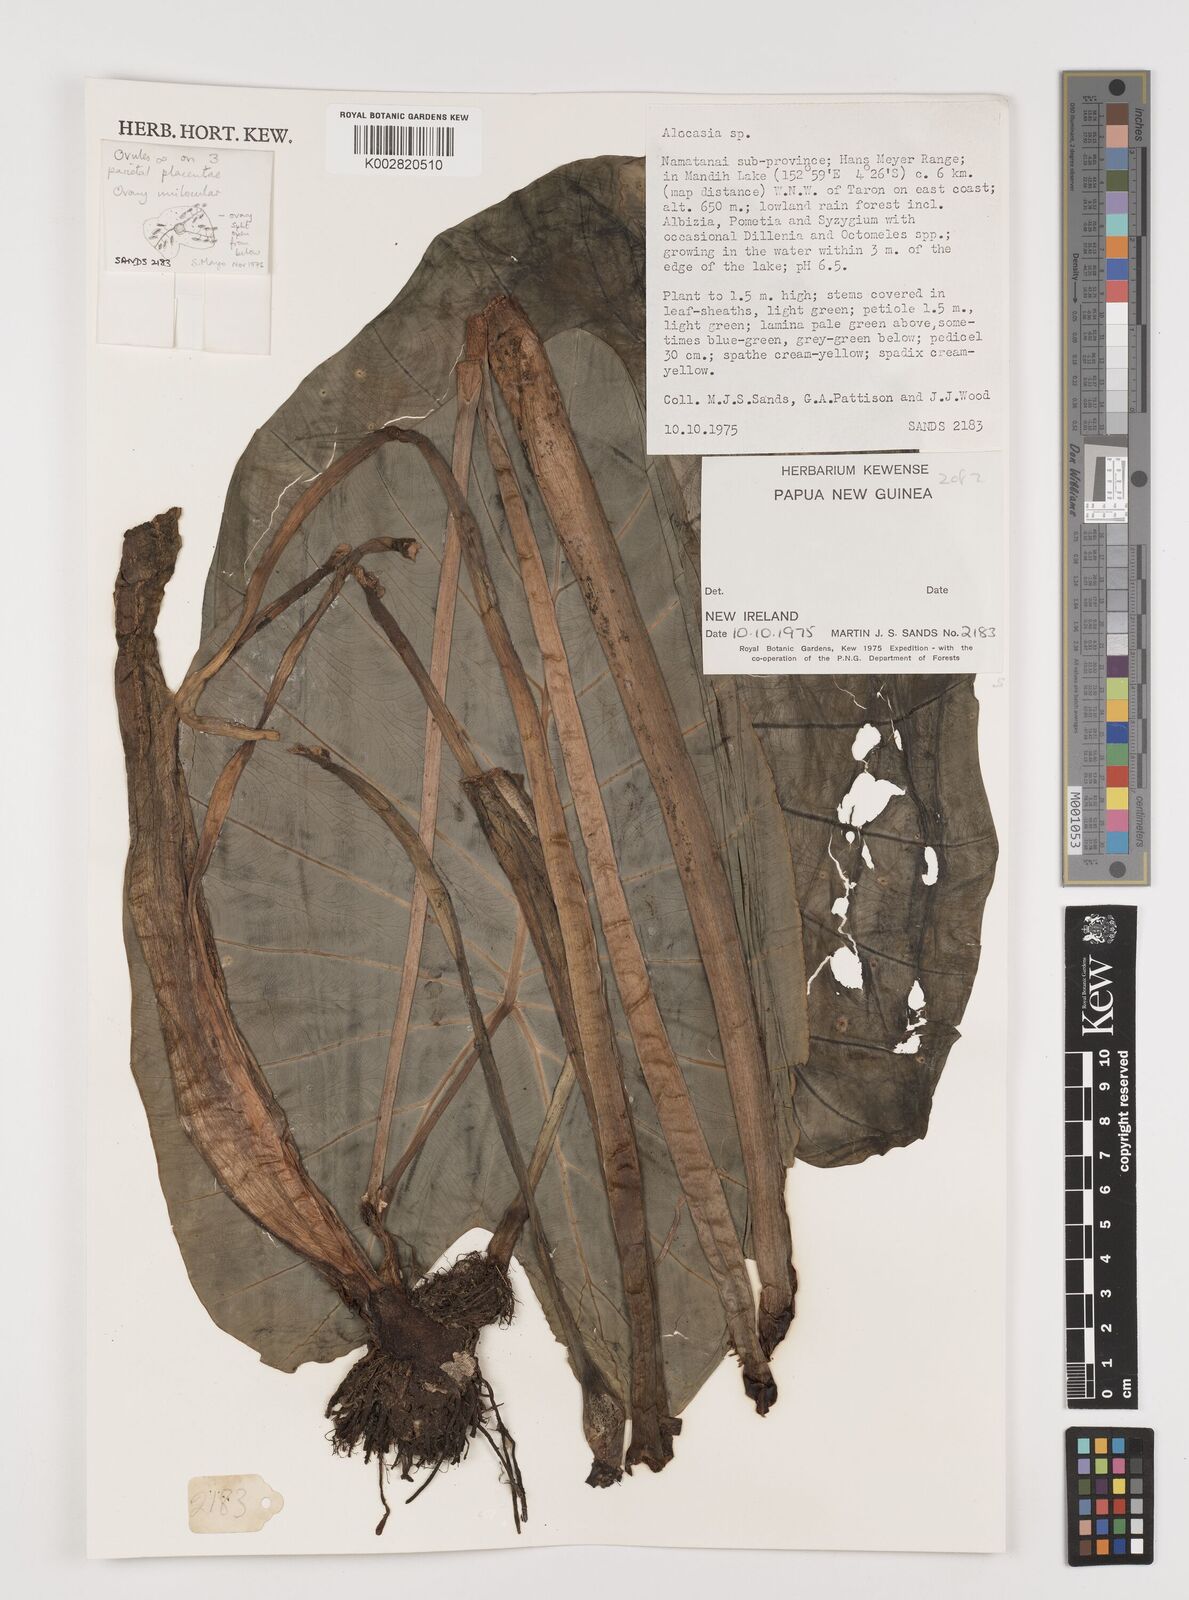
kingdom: Plantae
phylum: Tracheophyta
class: Liliopsida
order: Alismatales
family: Araceae
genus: Colocasia
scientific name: Colocasia esculenta
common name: Taro
